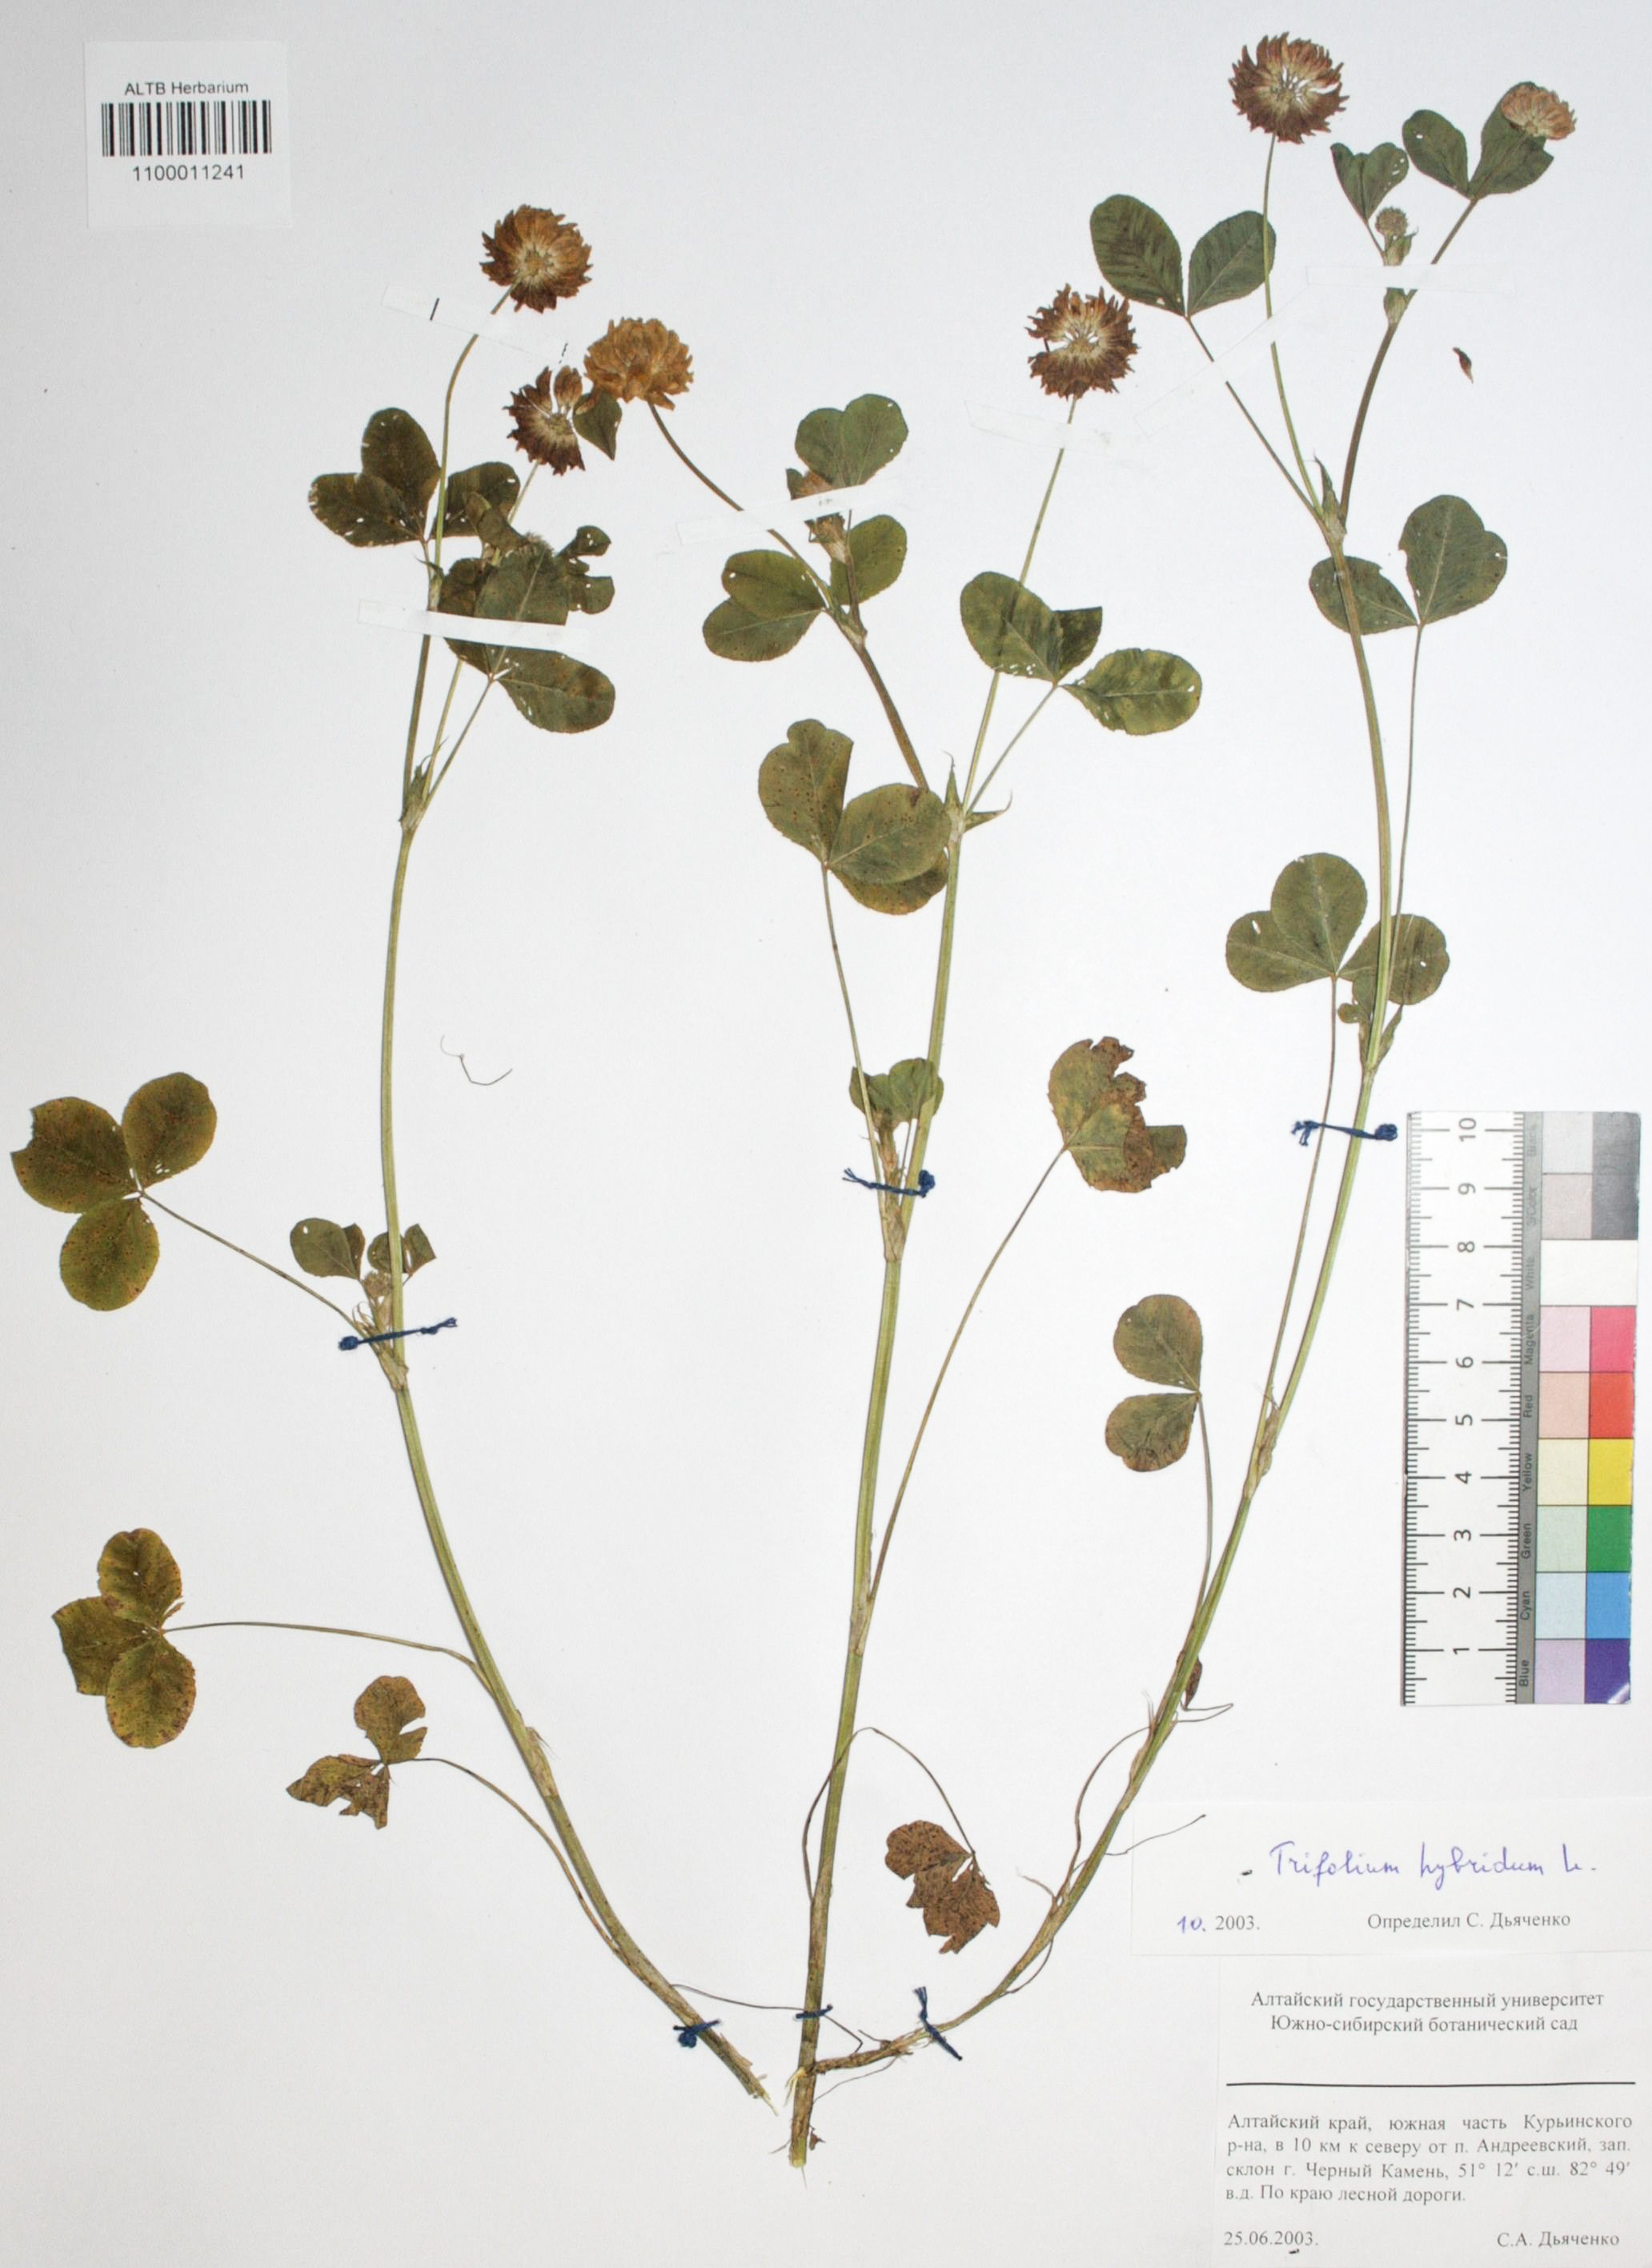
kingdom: Plantae
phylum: Tracheophyta
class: Magnoliopsida
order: Fabales
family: Fabaceae
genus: Trifolium
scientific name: Trifolium hybridum
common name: Alsike clover
